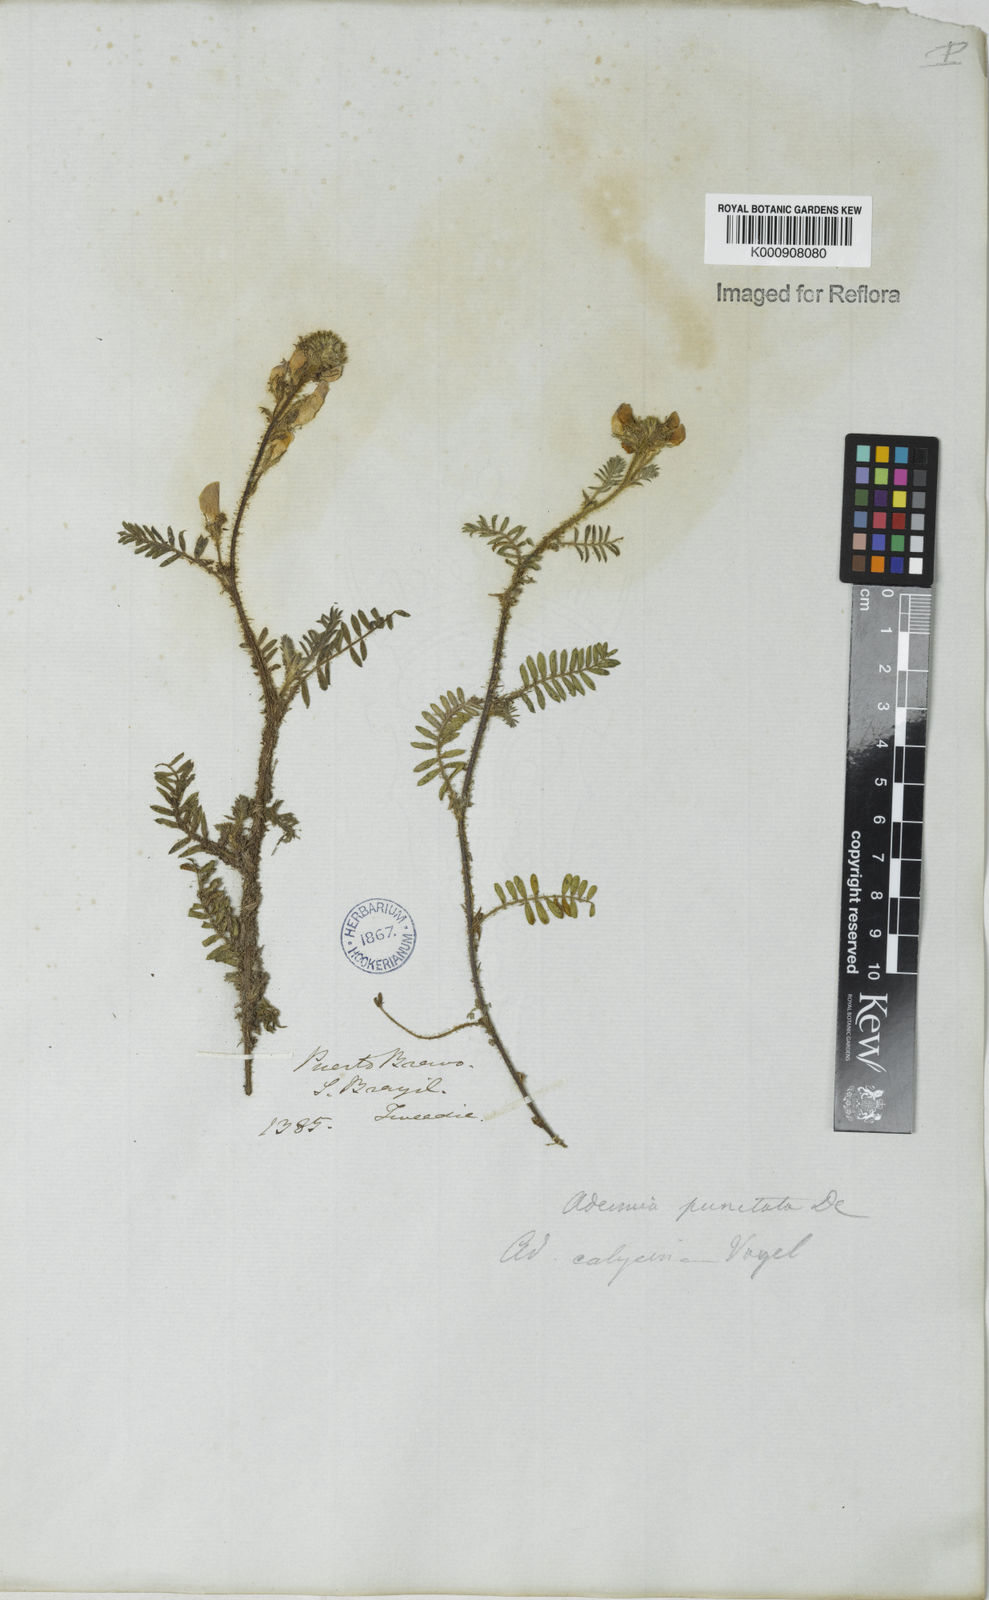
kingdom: Plantae
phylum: Tracheophyta
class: Magnoliopsida
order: Fabales
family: Fabaceae
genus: Adesmia
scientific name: Adesmia punctata
